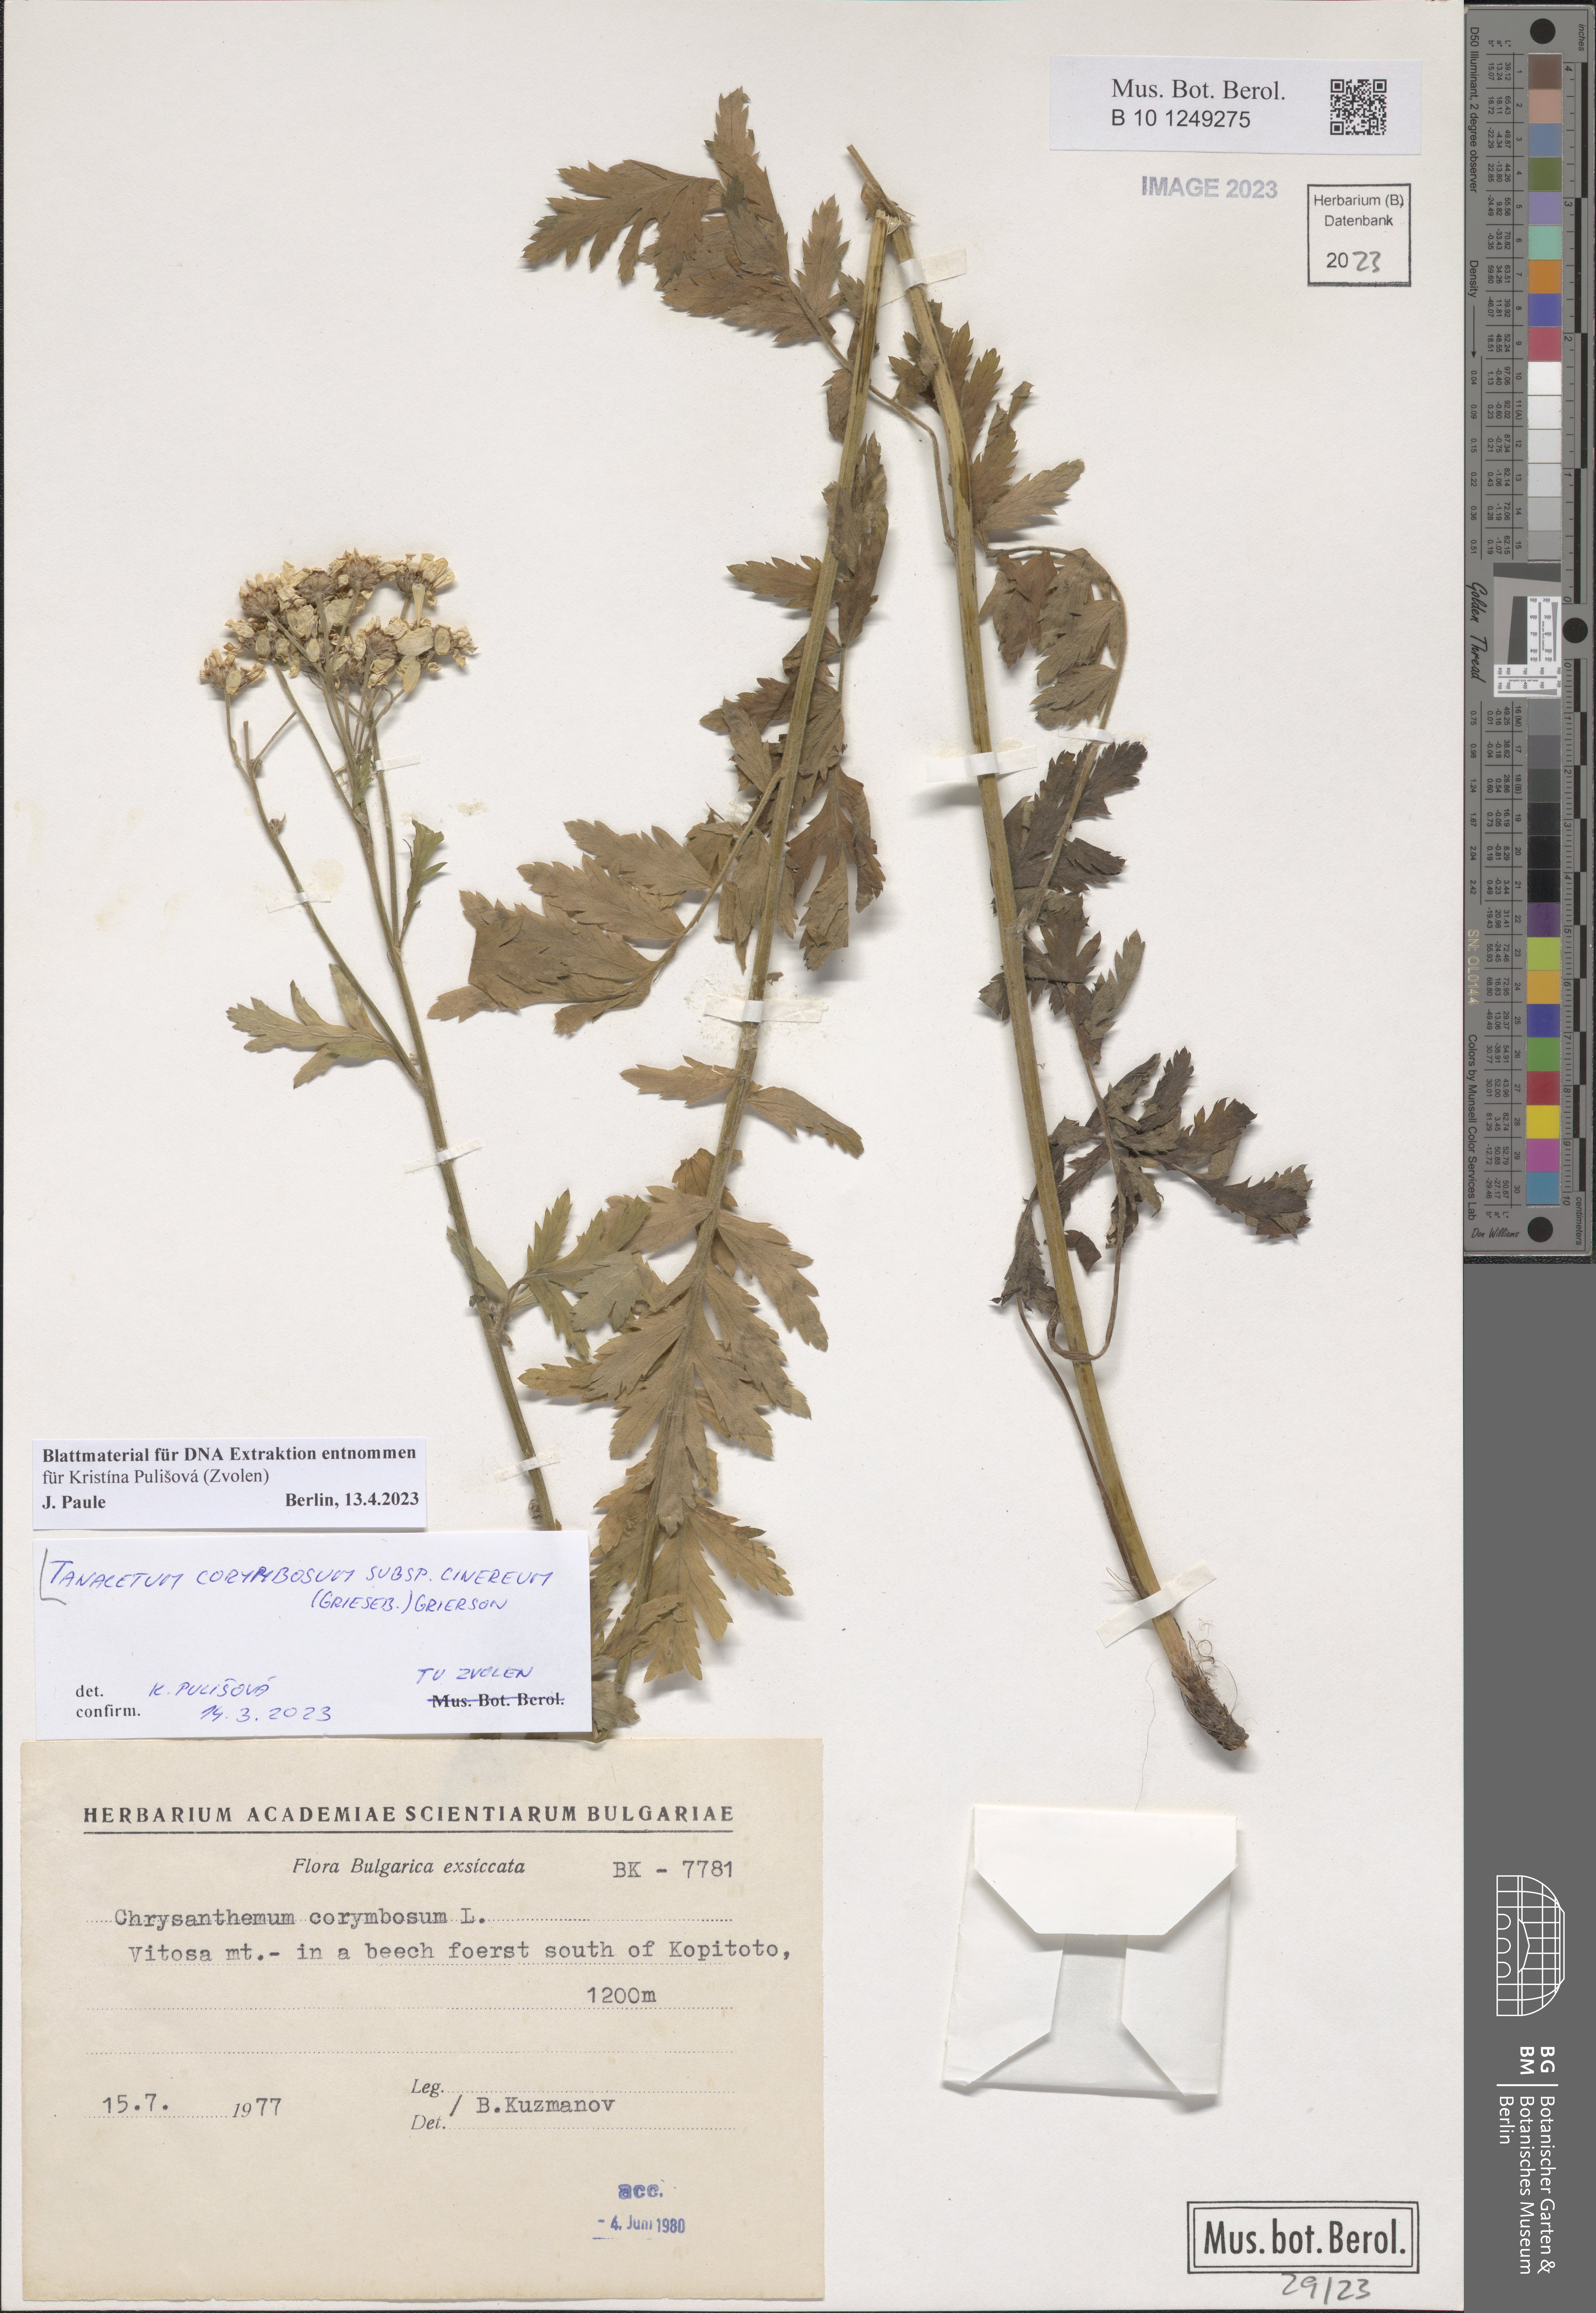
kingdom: Plantae
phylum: Tracheophyta
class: Magnoliopsida
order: Asterales
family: Asteraceae
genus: Tanacetum
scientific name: Tanacetum corymbosum
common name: Scentless feverfew
